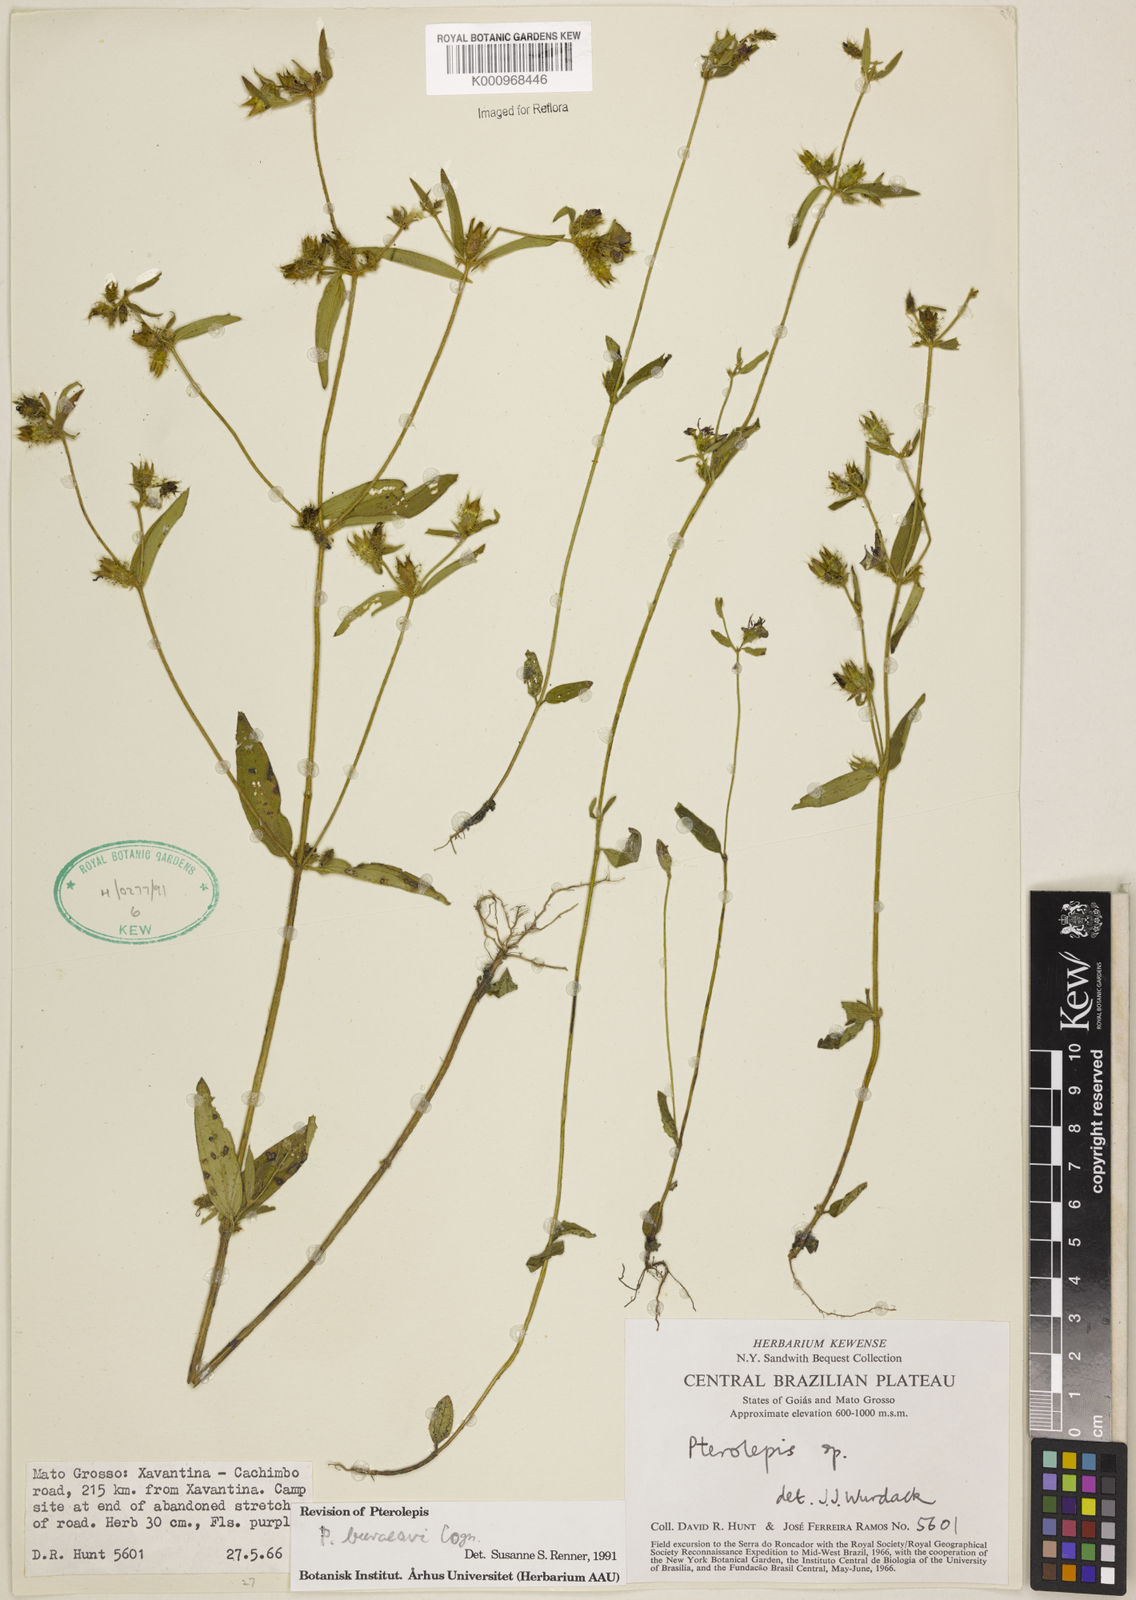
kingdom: Plantae
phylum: Tracheophyta
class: Magnoliopsida
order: Myrtales
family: Melastomataceae
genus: Pterolepis
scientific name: Pterolepis buraeavi
